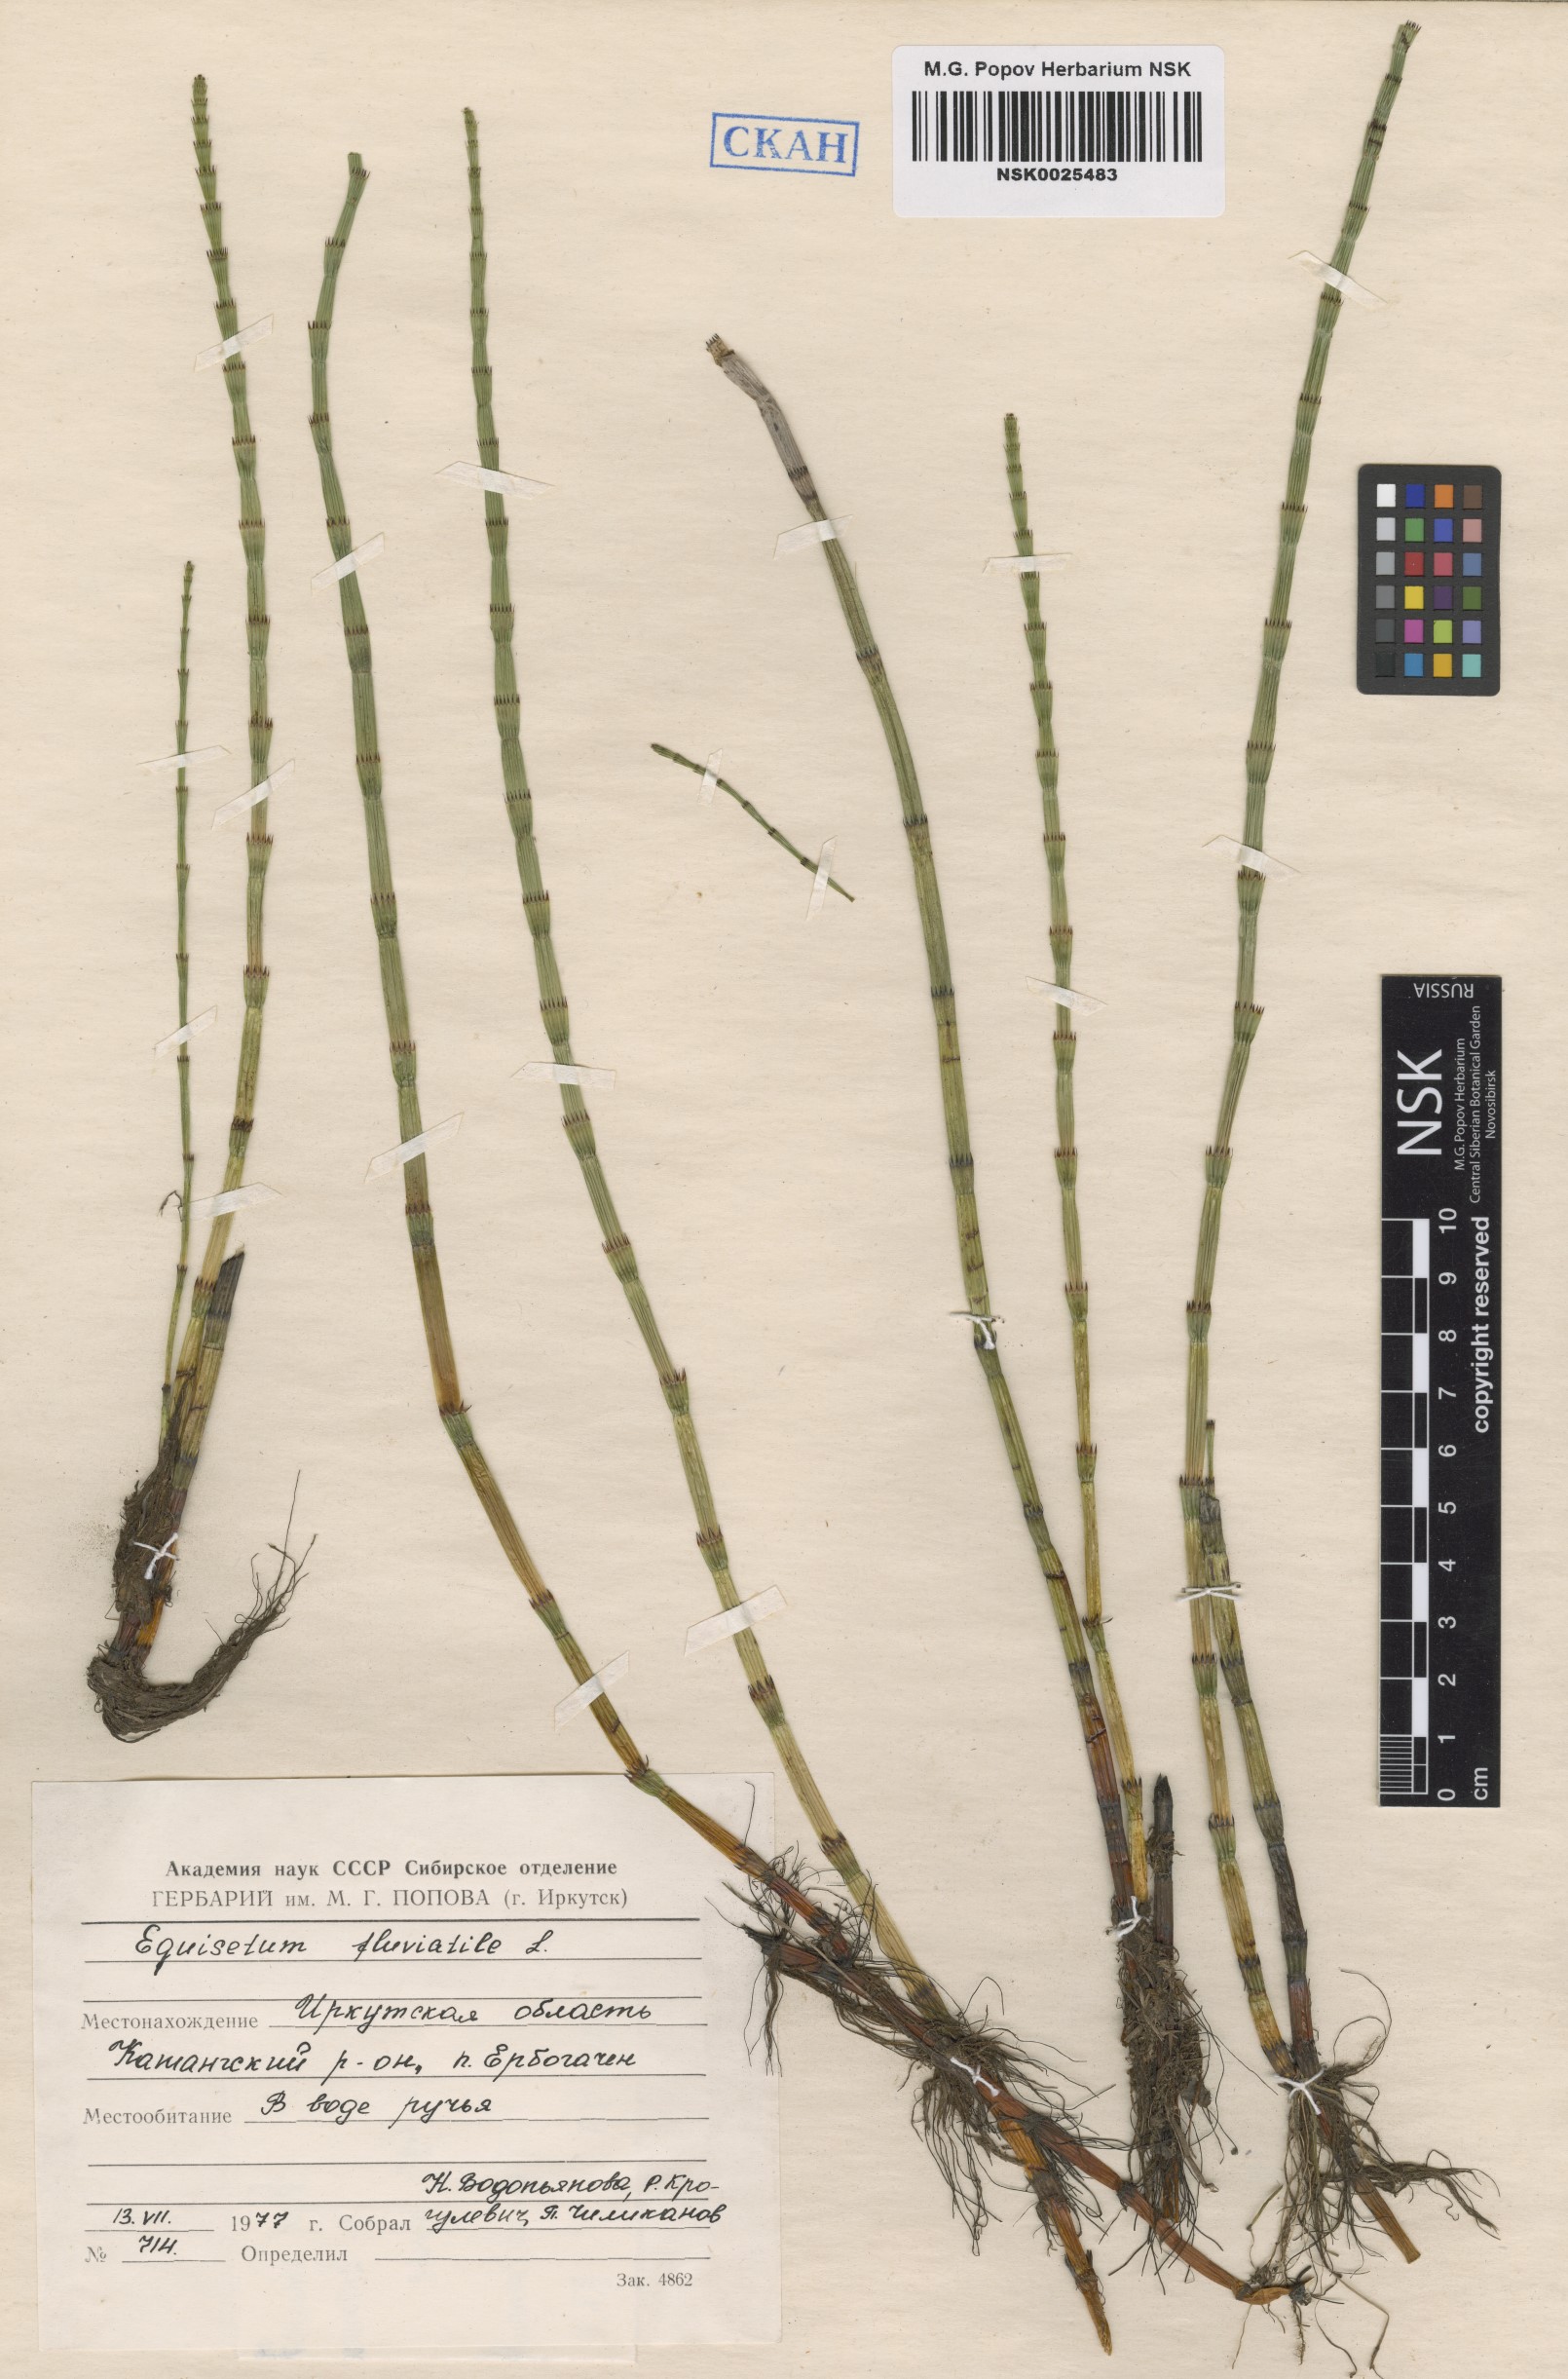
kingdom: Plantae
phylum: Tracheophyta
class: Polypodiopsida
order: Equisetales
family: Equisetaceae
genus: Equisetum
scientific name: Equisetum fluviatile
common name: Water horsetail
